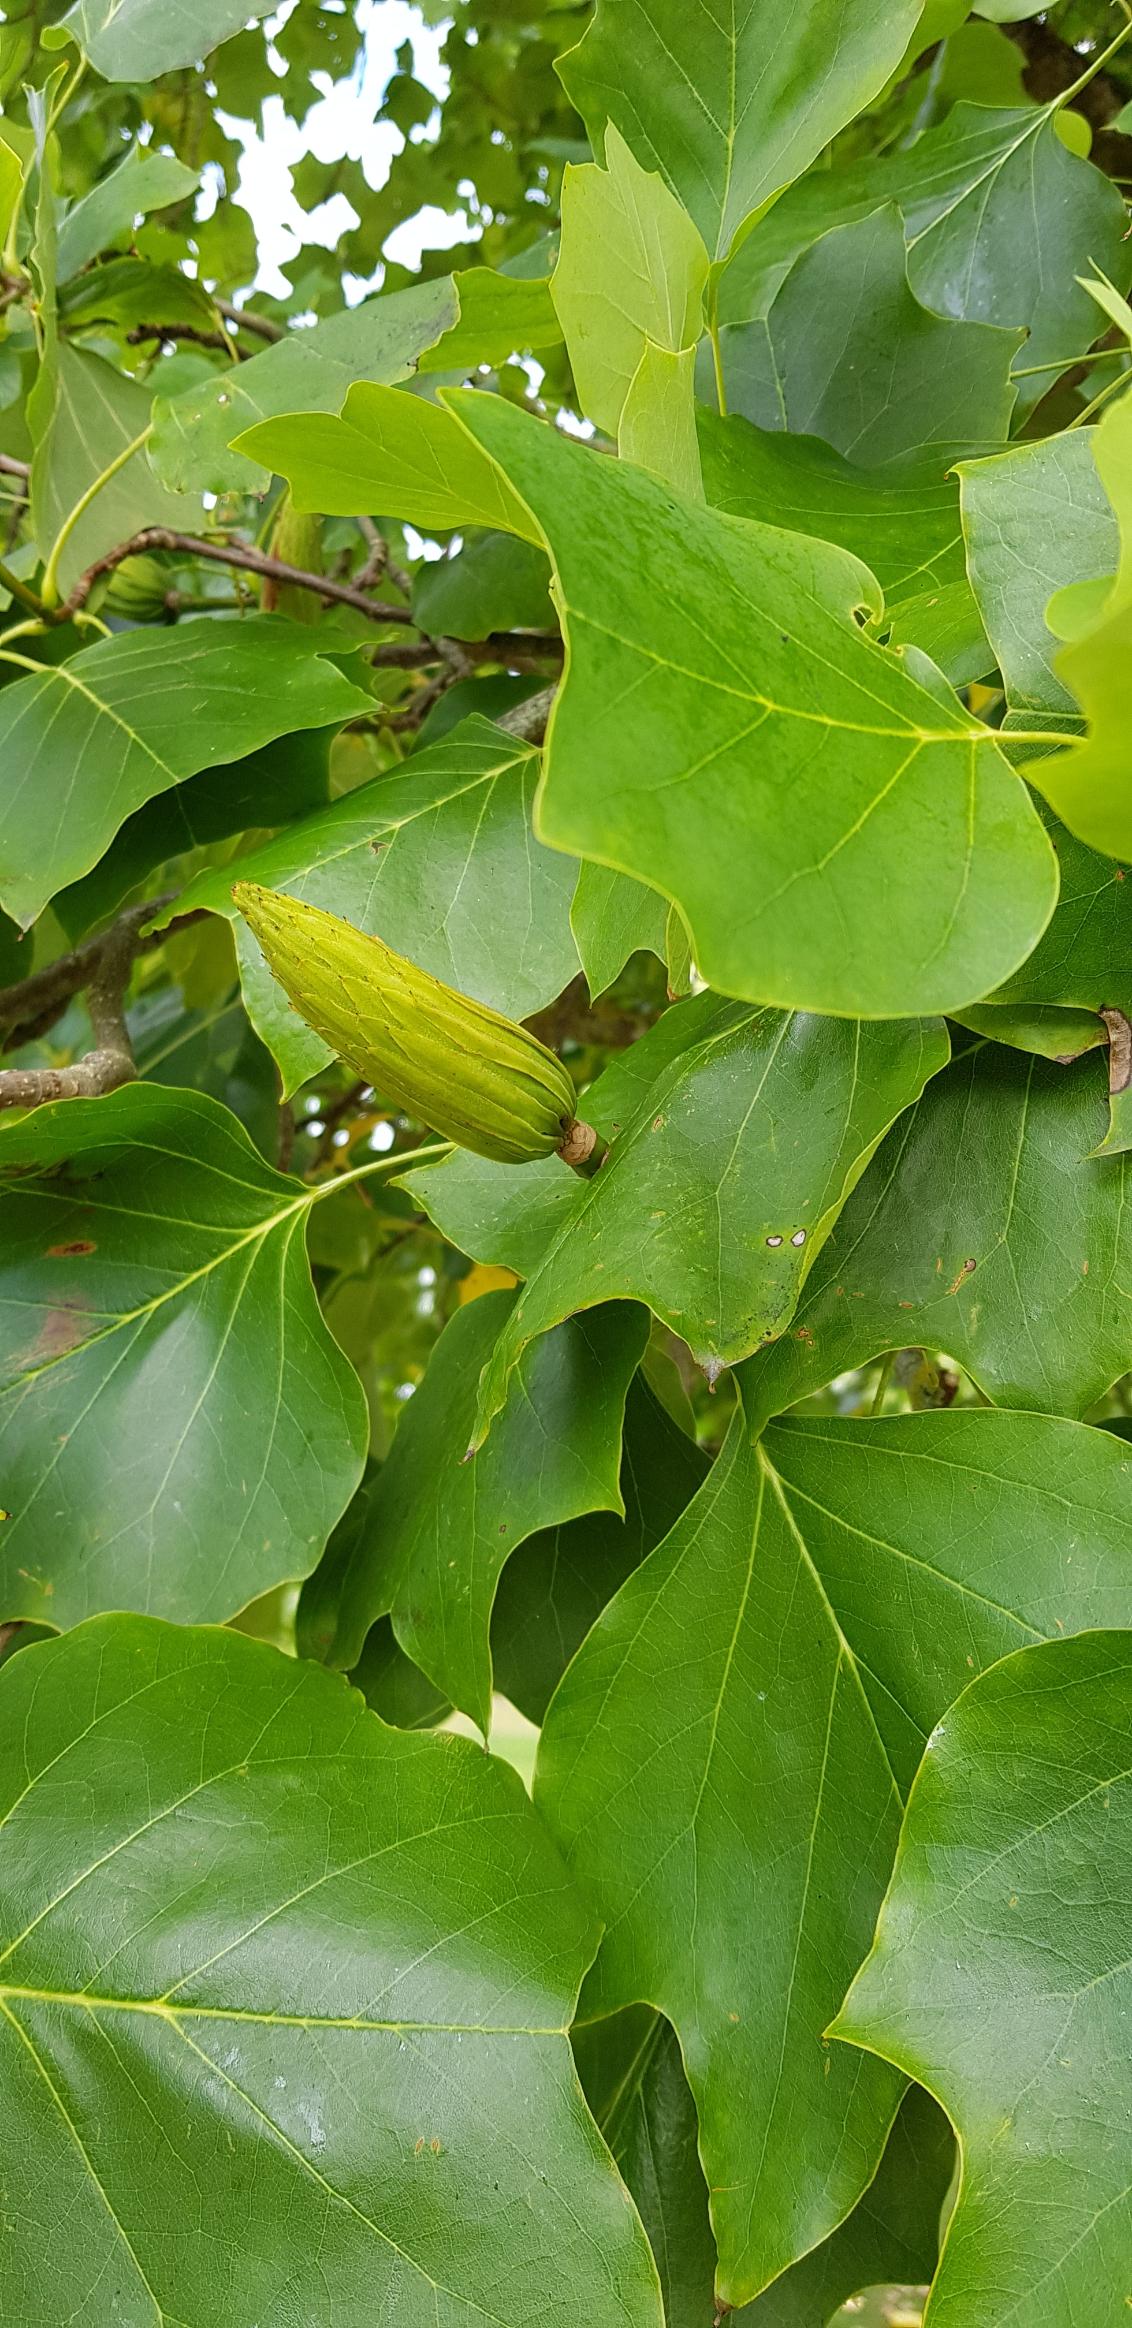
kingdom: Plantae
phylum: Tracheophyta
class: Magnoliopsida
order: Magnoliales
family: Magnoliaceae
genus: Liriodendron
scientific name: Liriodendron tulipifera
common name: Tulipantræ
